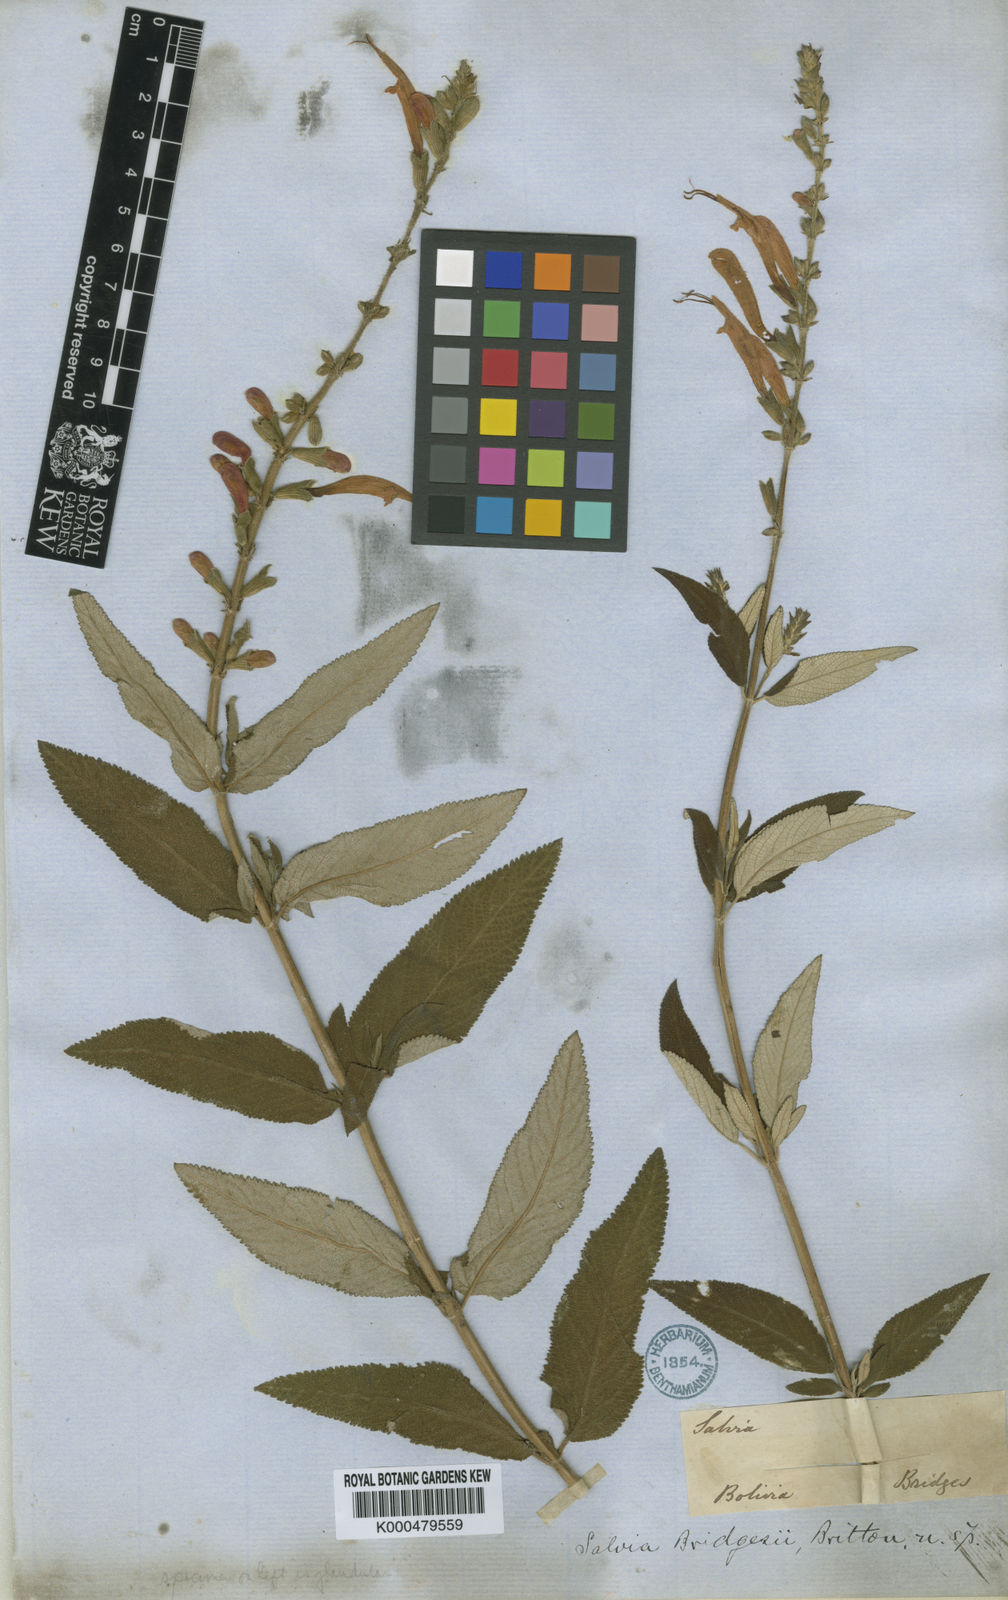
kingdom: Plantae
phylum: Tracheophyta
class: Magnoliopsida
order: Lamiales
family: Lamiaceae
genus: Salvia
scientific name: Salvia haenkei
